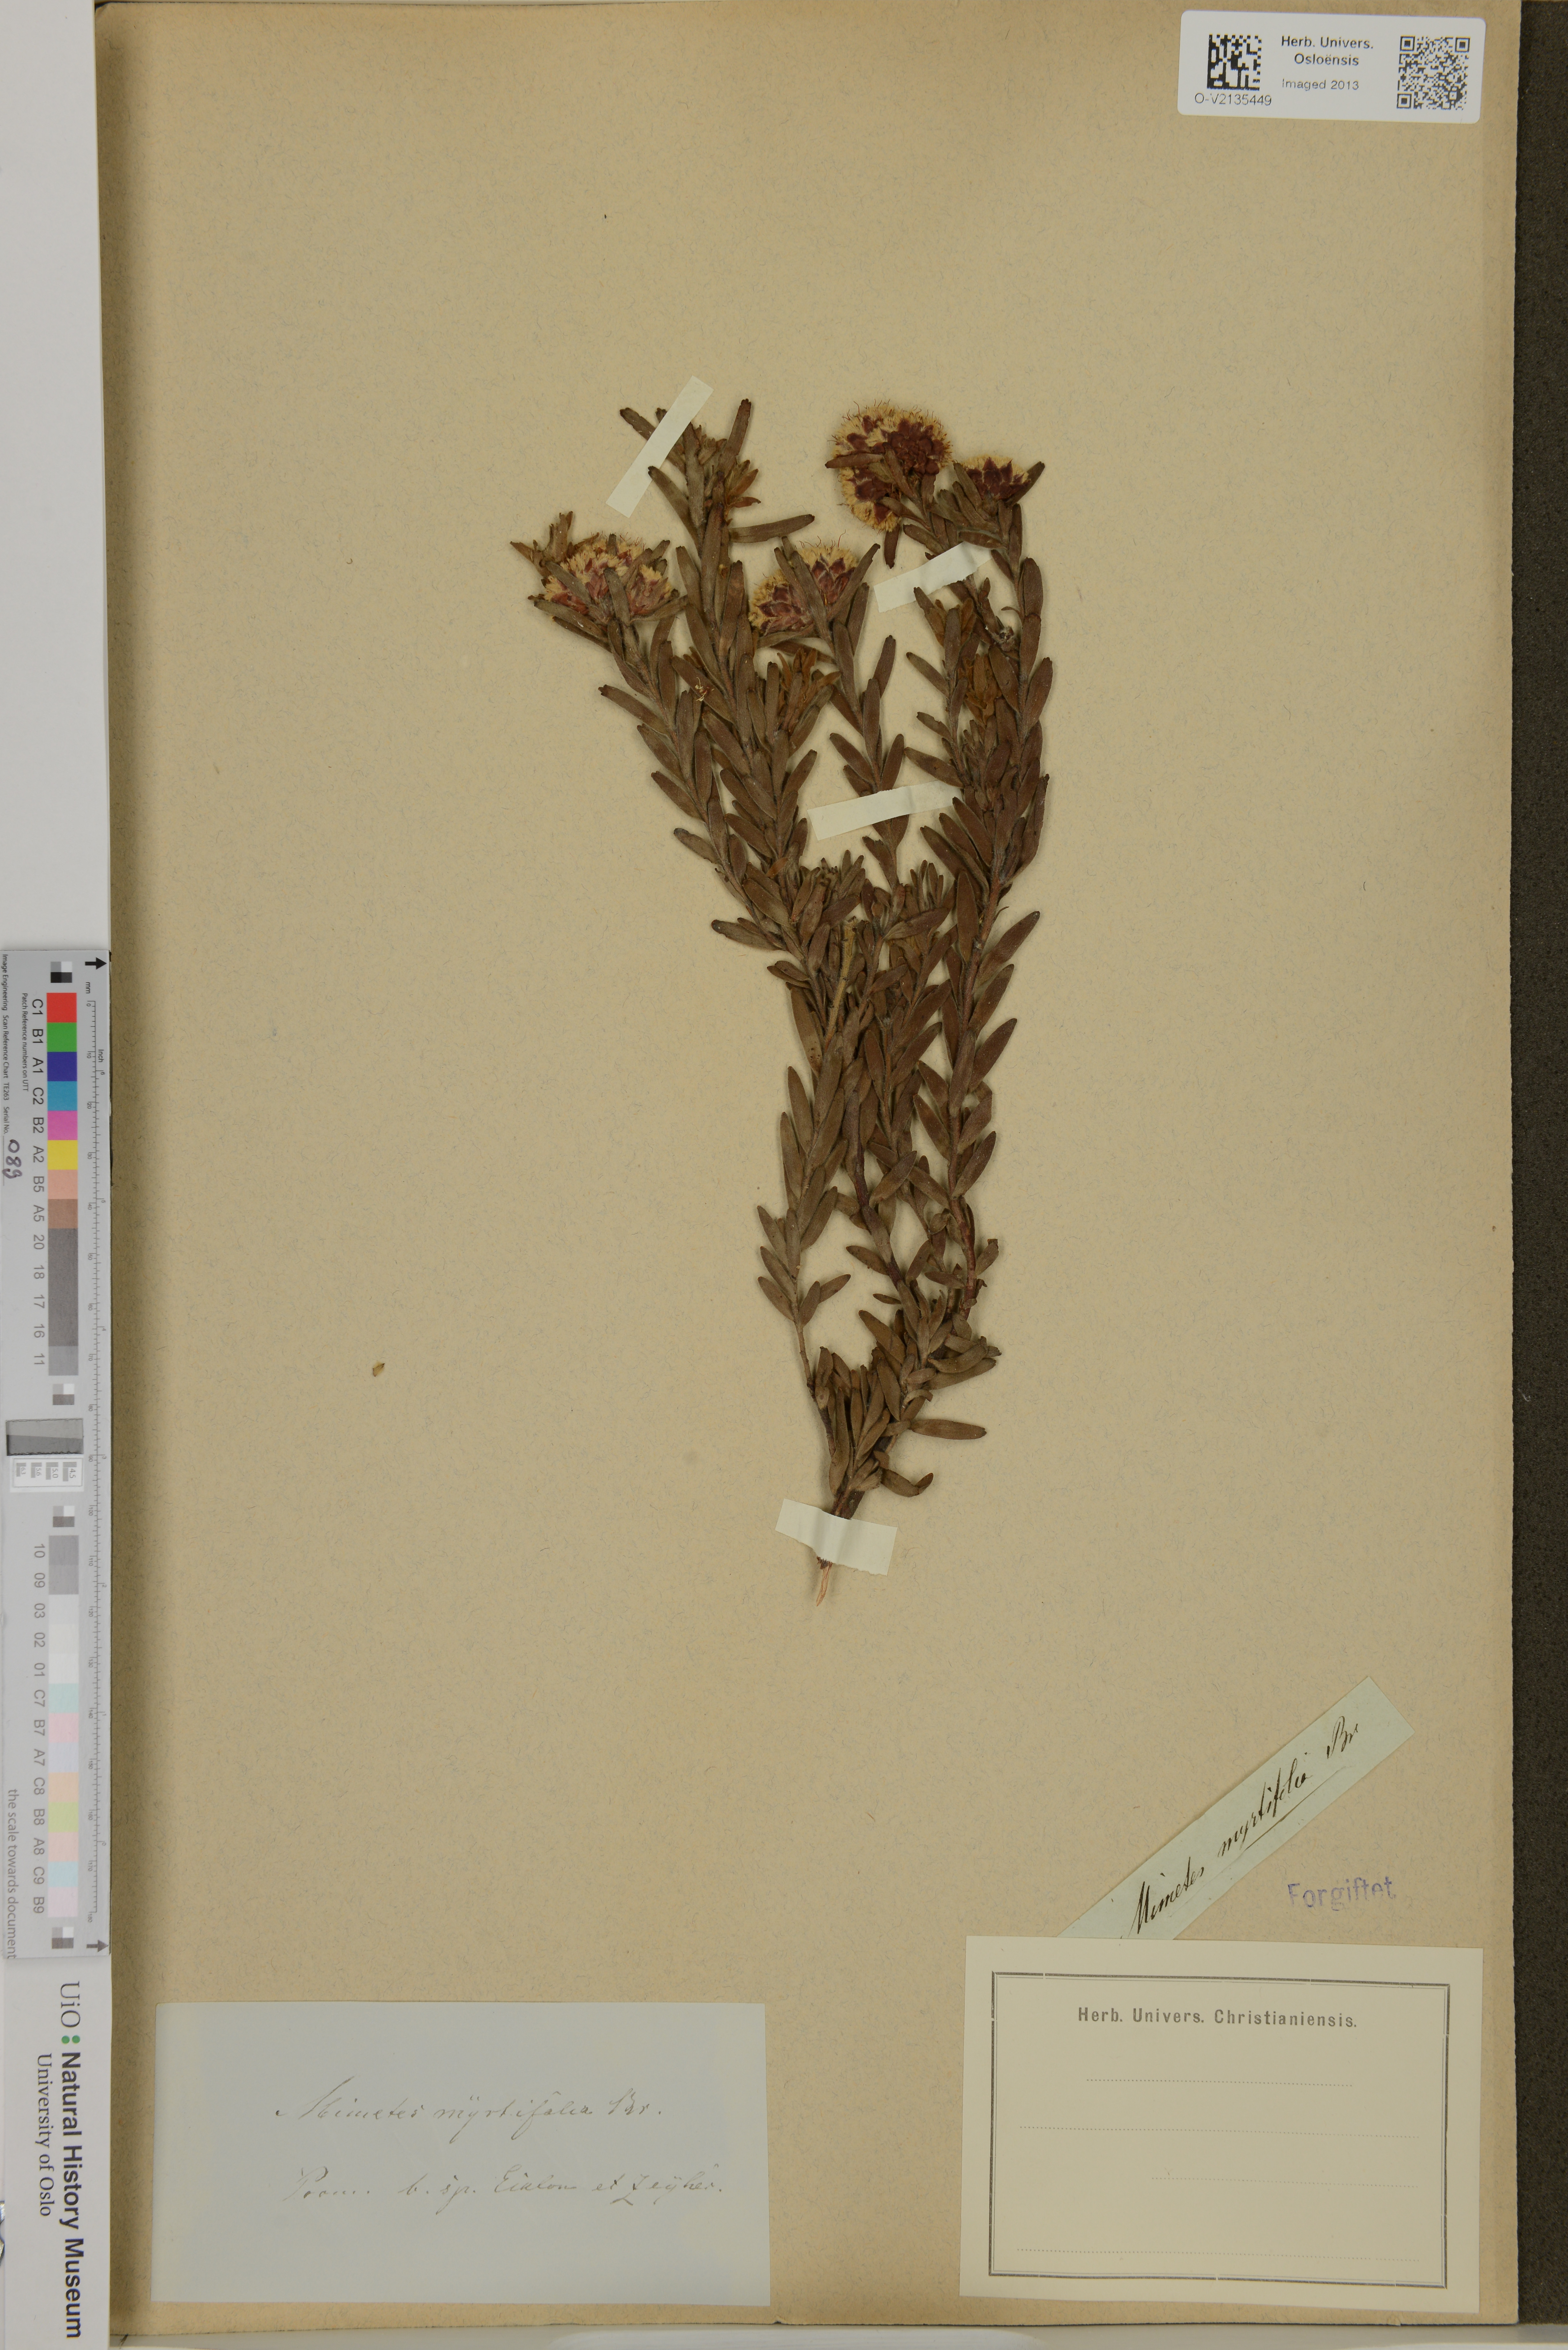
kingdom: Plantae
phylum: Tracheophyta
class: Magnoliopsida
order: Proteales
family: Proteaceae
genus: Diastella
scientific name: Diastella myrtifolia
